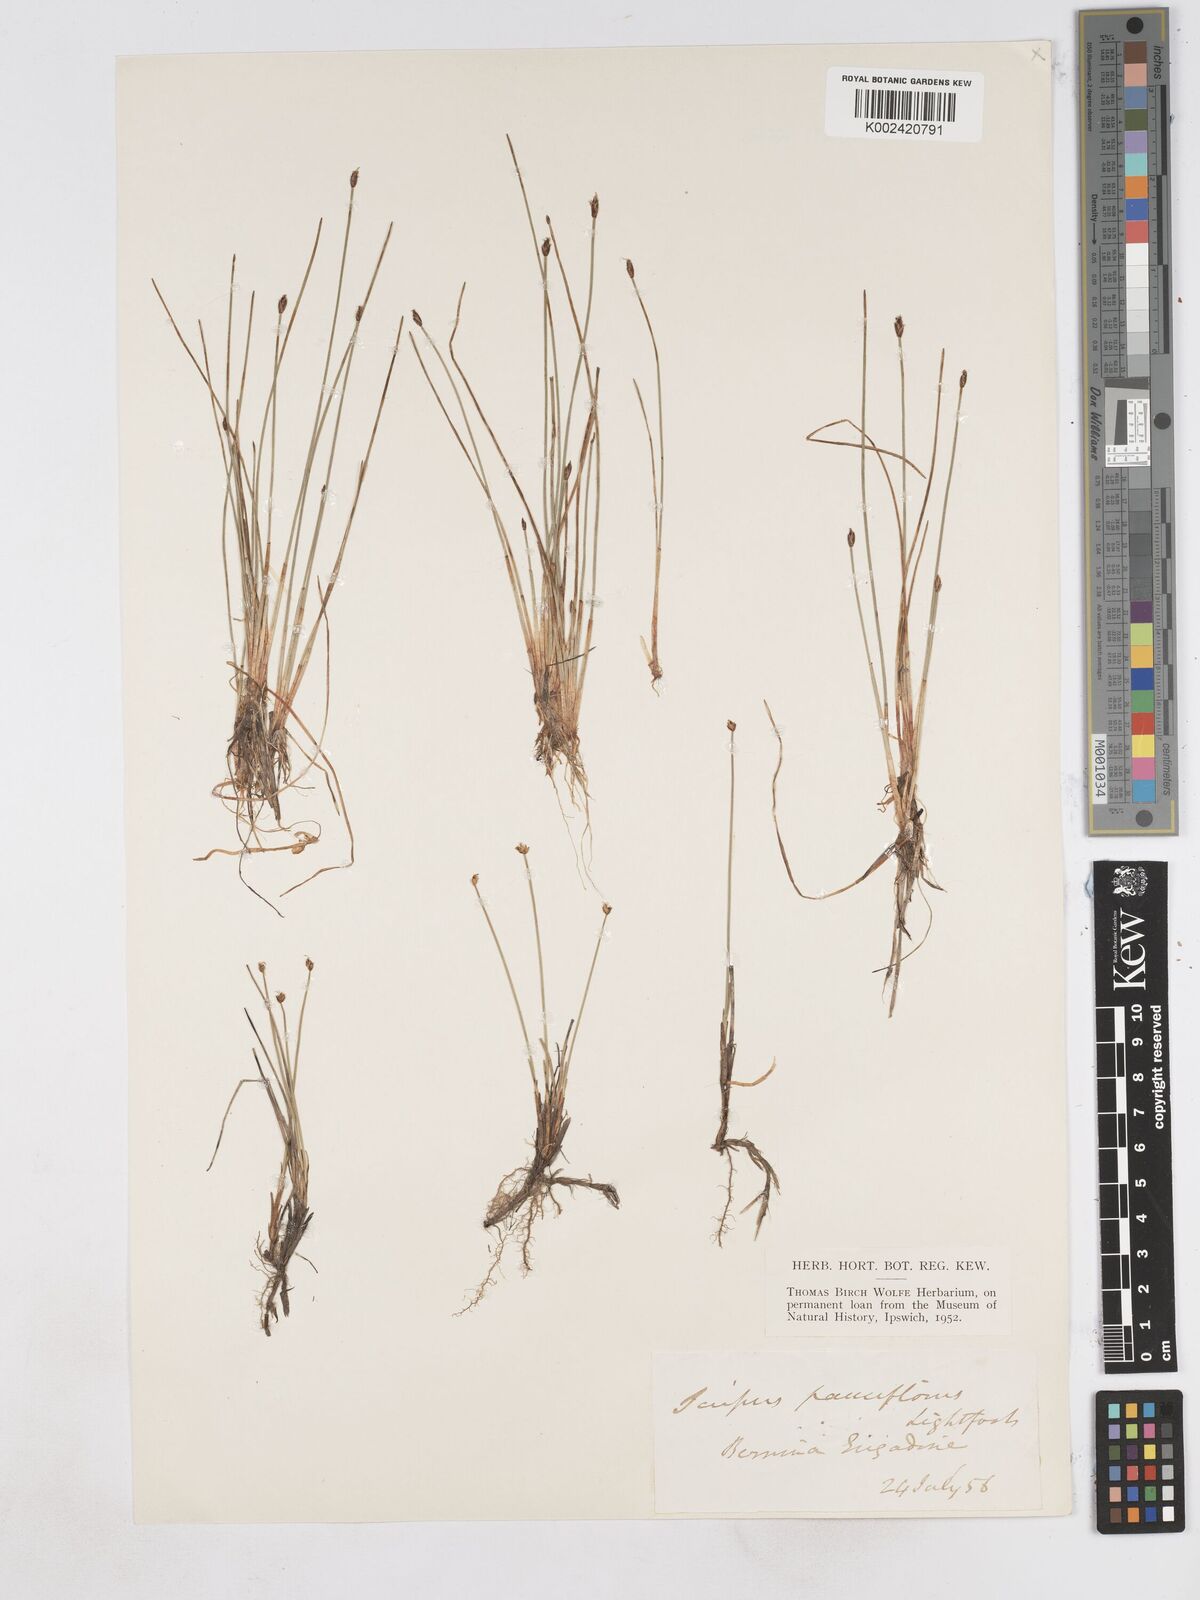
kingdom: Plantae
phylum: Tracheophyta
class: Liliopsida
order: Poales
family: Cyperaceae
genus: Eleocharis
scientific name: Eleocharis quinqueflora
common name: Few-flowered spike-rush
